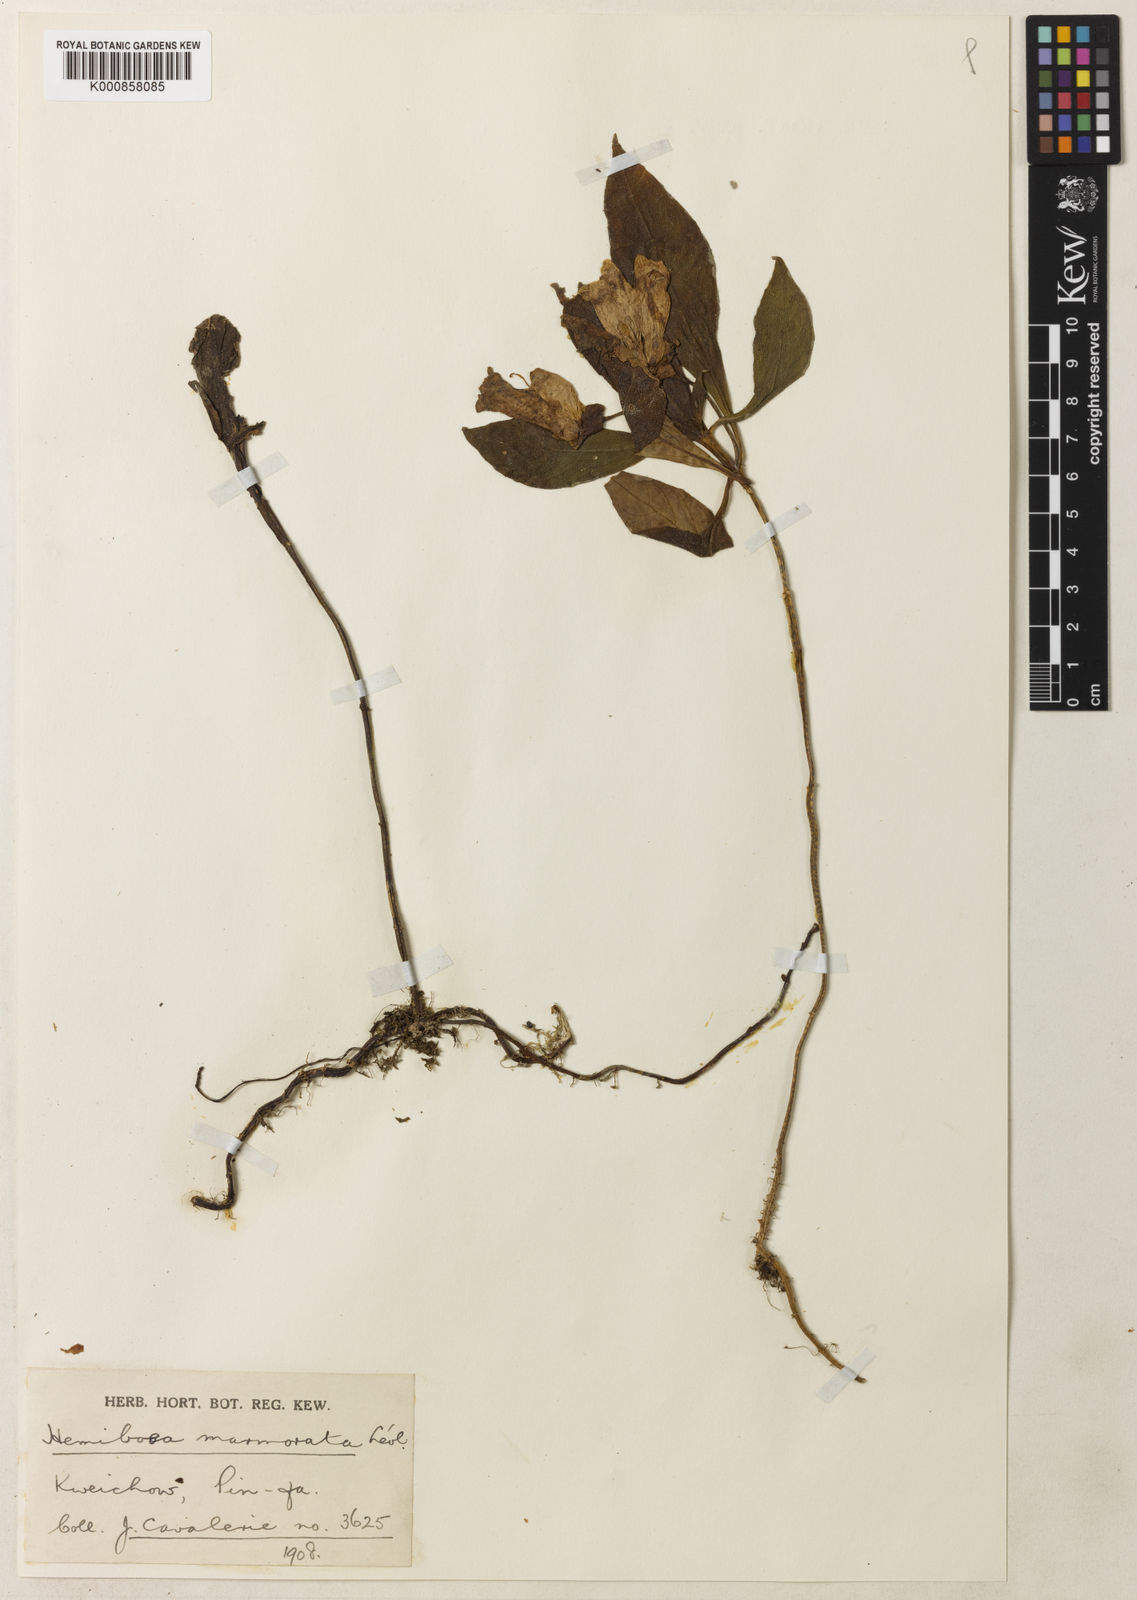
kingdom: Plantae
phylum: Tracheophyta
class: Magnoliopsida
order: Lamiales
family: Gesneriaceae
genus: Hemiboea
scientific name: Hemiboea subcapitata
